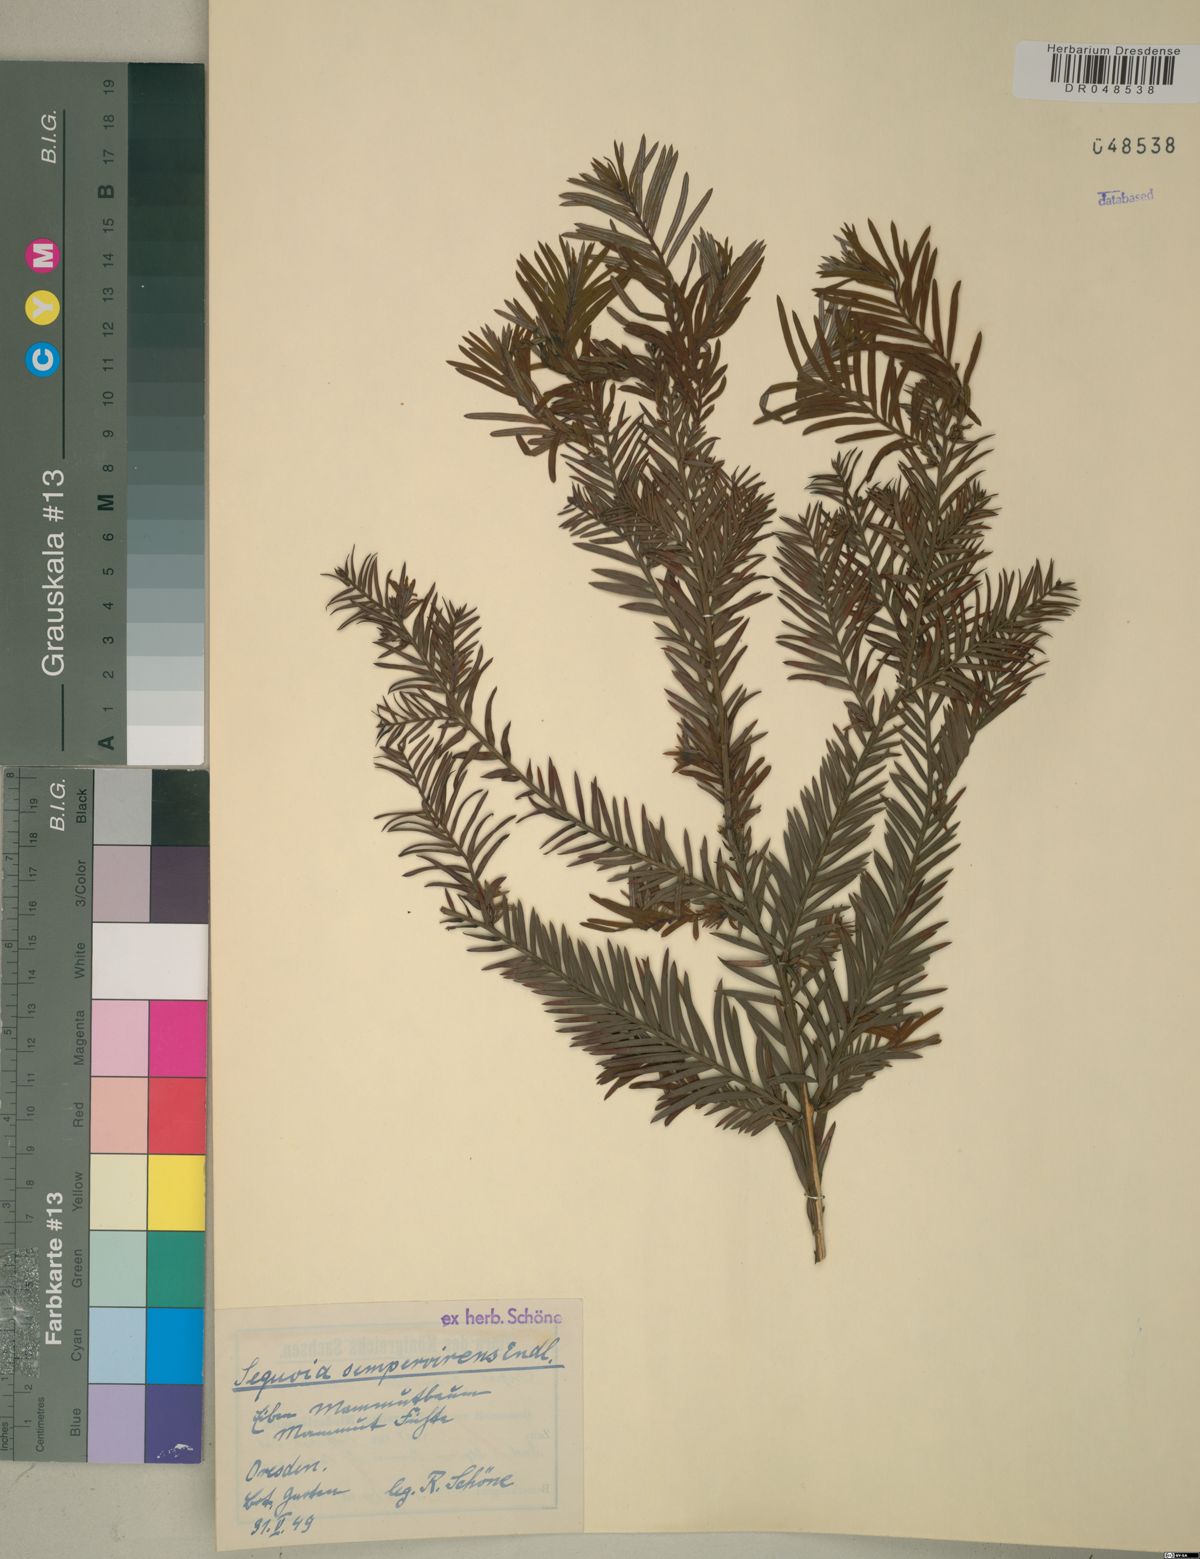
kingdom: Plantae
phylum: Tracheophyta
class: Pinopsida
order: Pinales
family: Cupressaceae
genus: Sequoia
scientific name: Sequoia sempervirens
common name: Coast redwood
